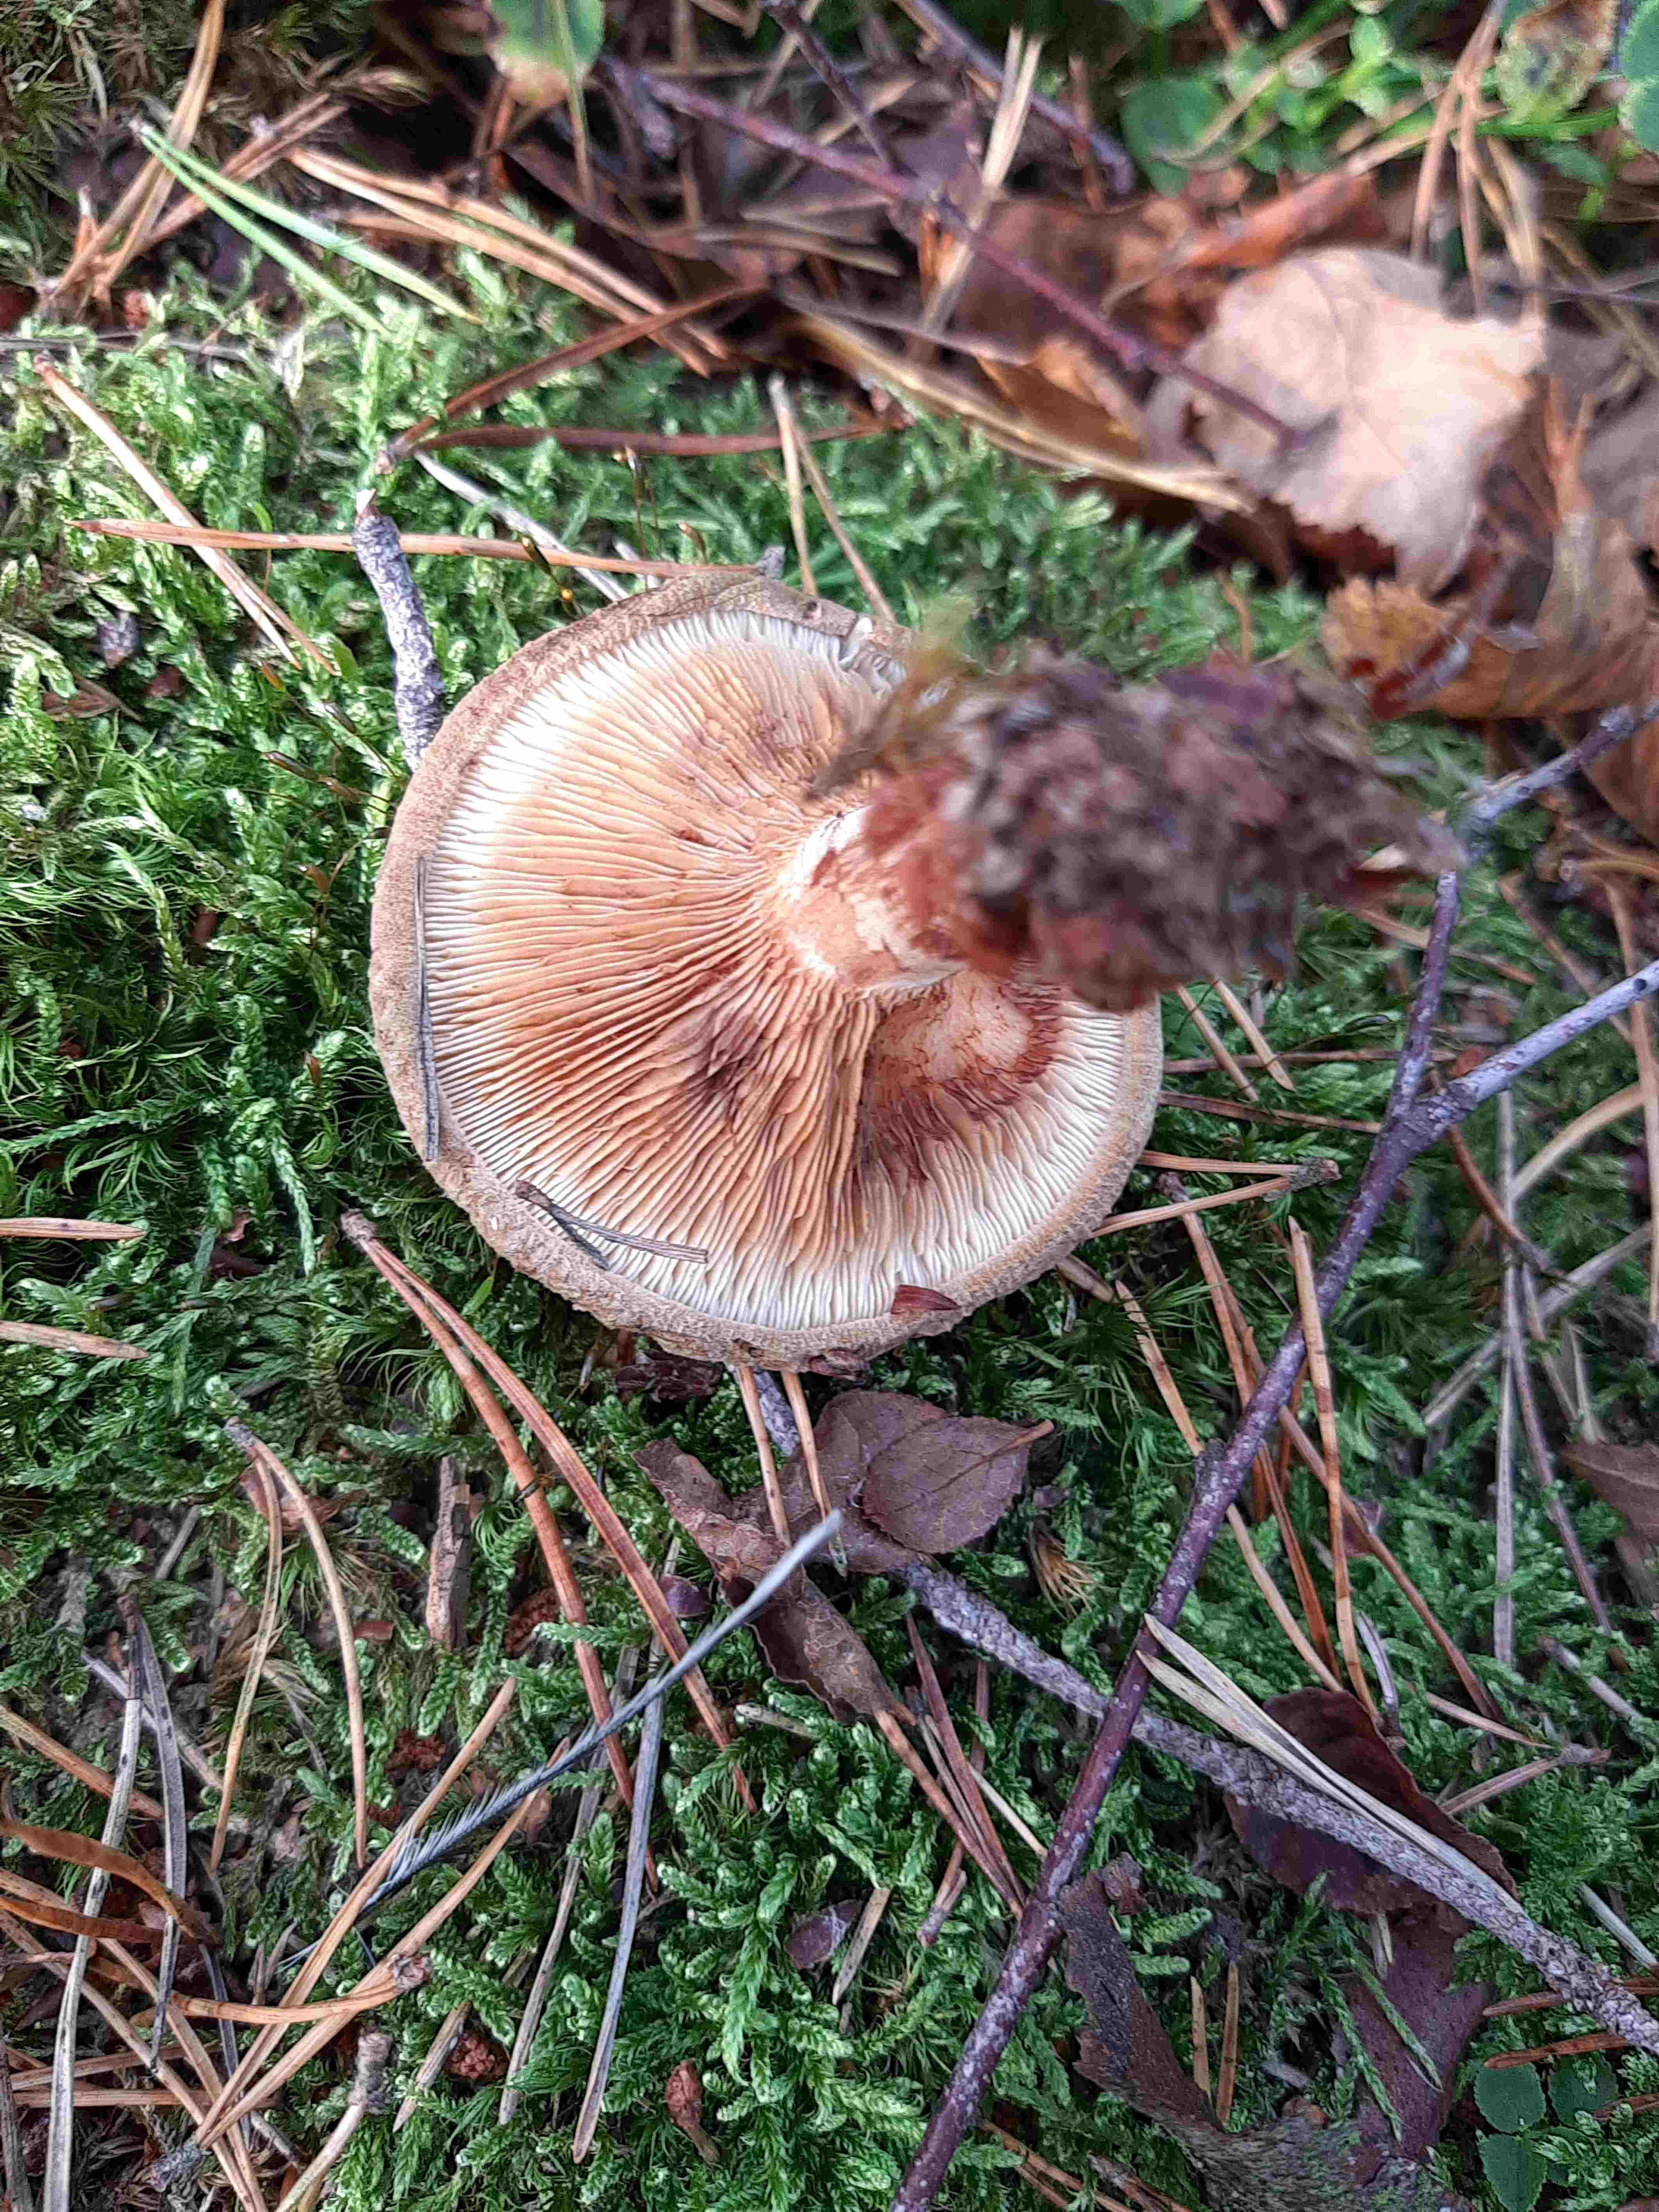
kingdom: Fungi
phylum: Basidiomycota
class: Agaricomycetes
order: Boletales
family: Paxillaceae
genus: Paxillus
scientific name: Paxillus involutus
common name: almindelig netbladhat
